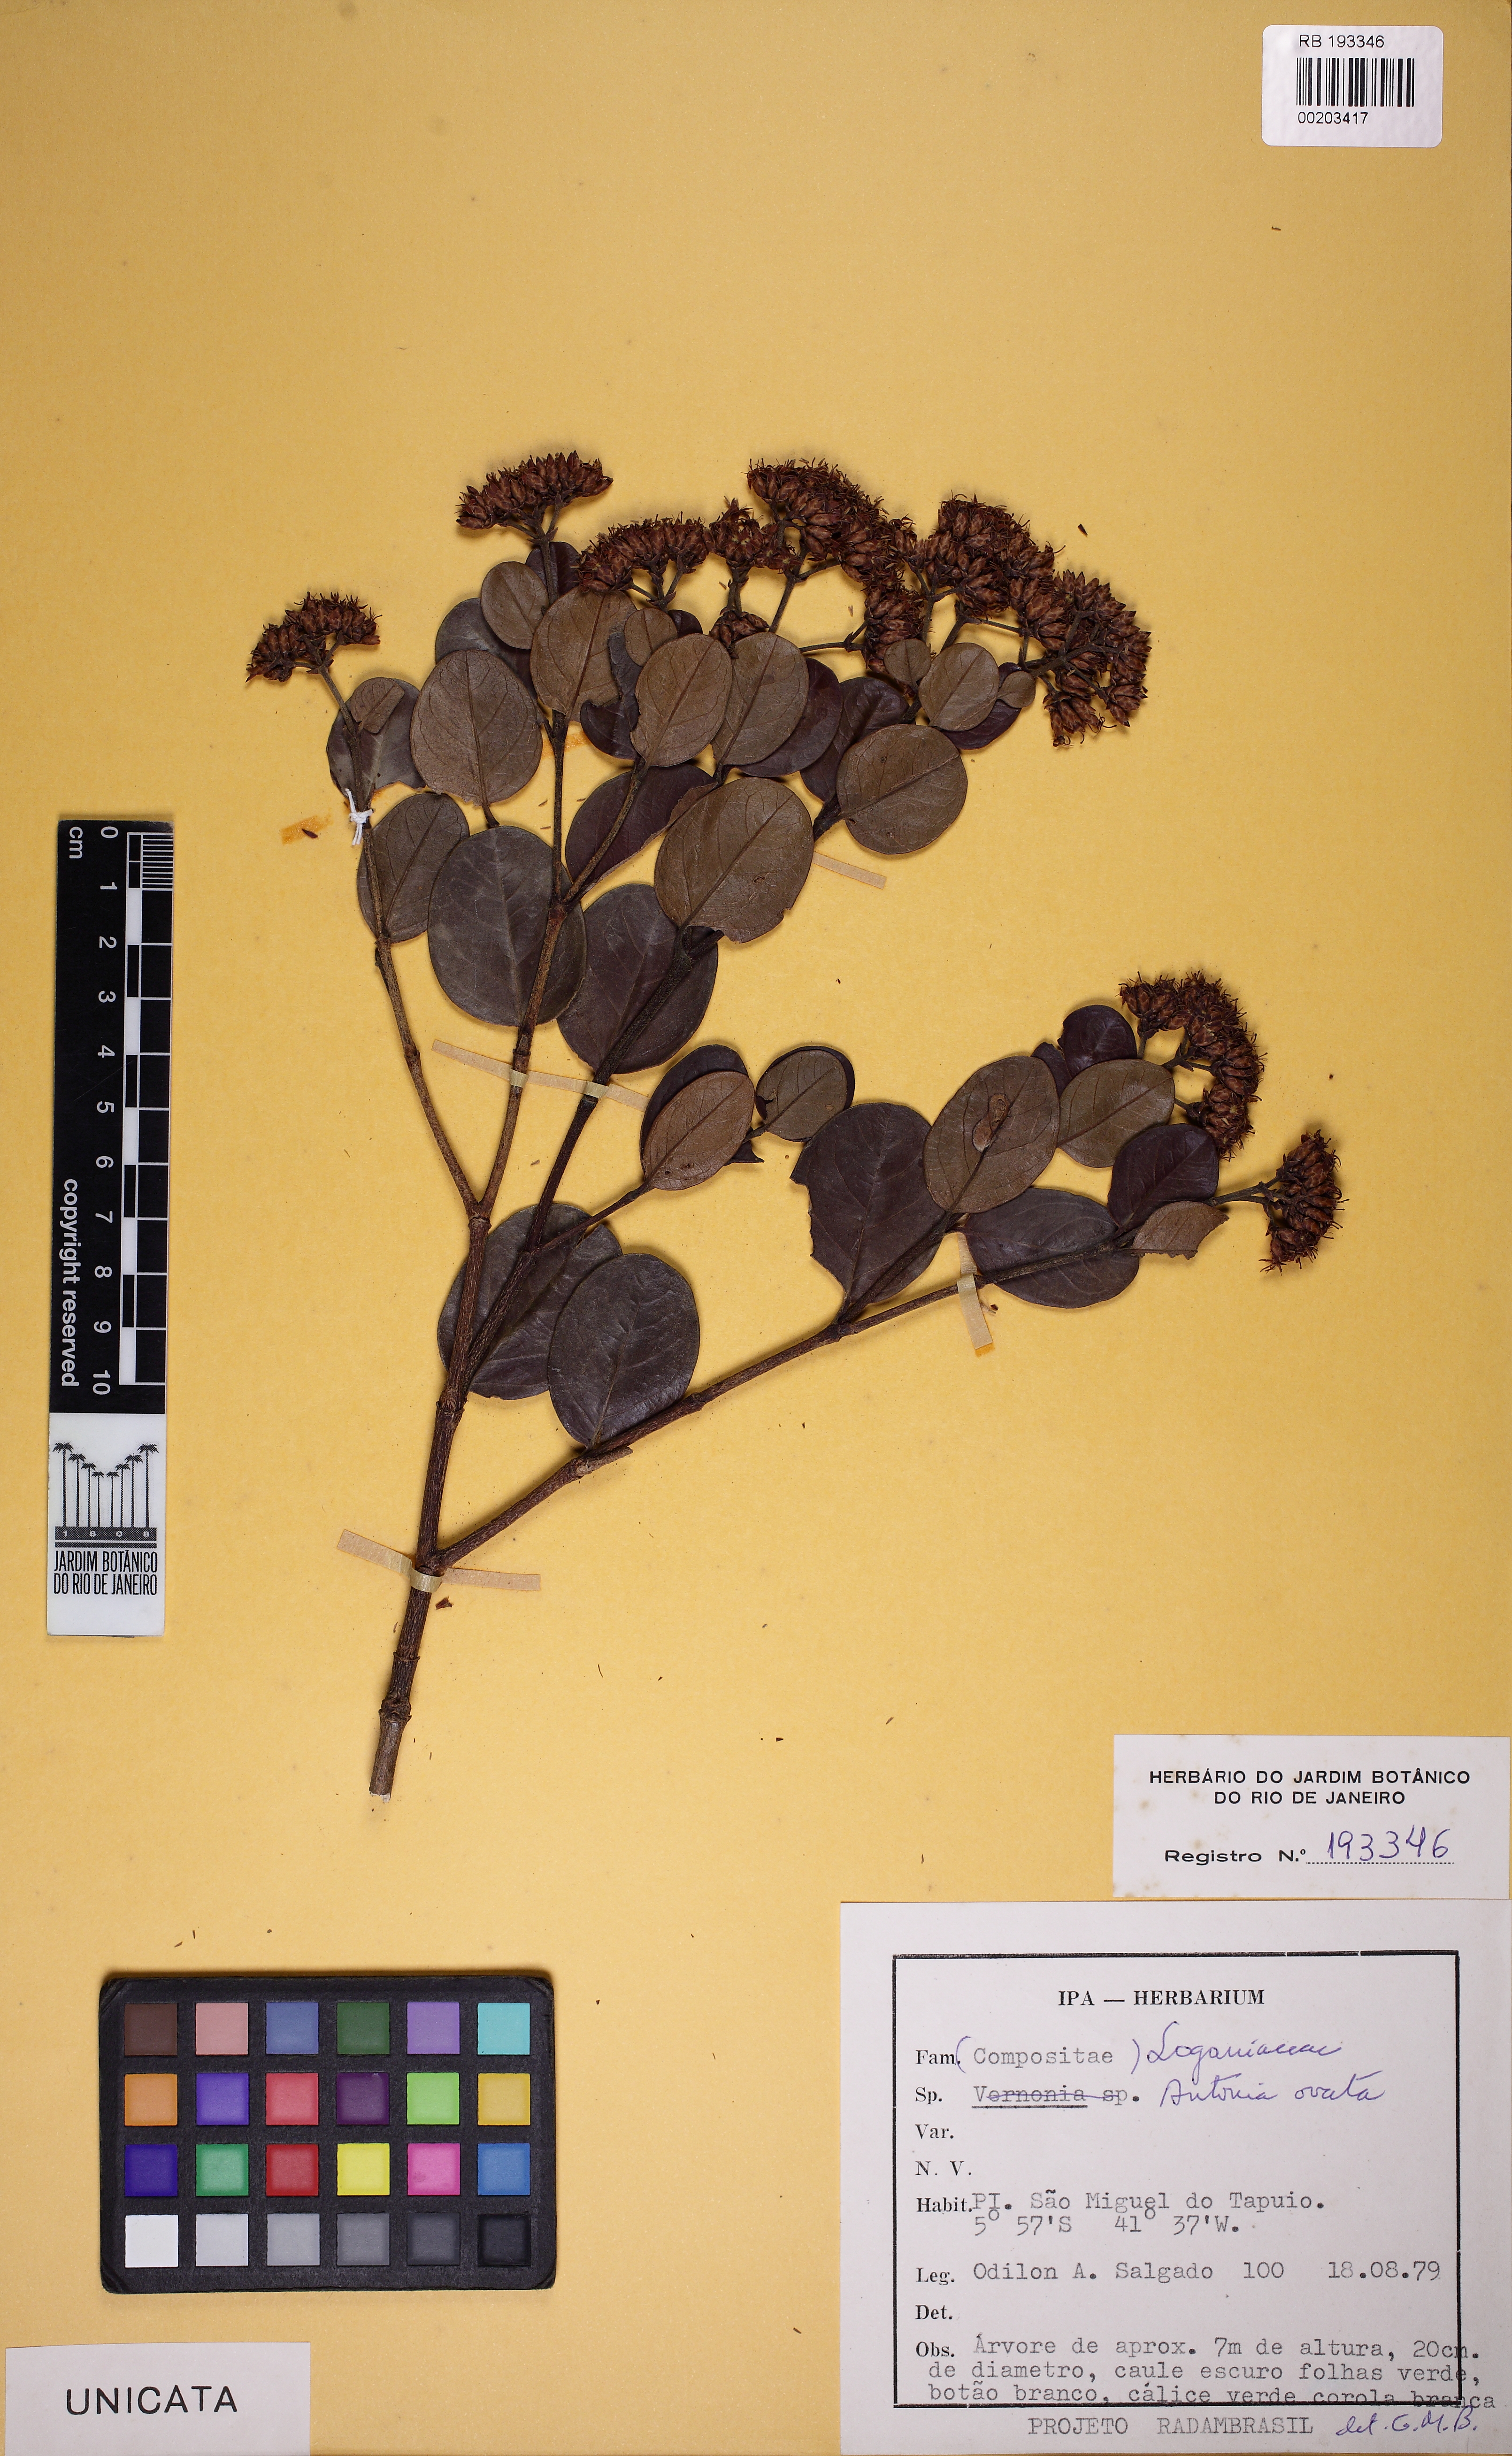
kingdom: Plantae
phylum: Tracheophyta
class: Magnoliopsida
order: Gentianales
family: Loganiaceae
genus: Antonia
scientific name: Antonia ovata
